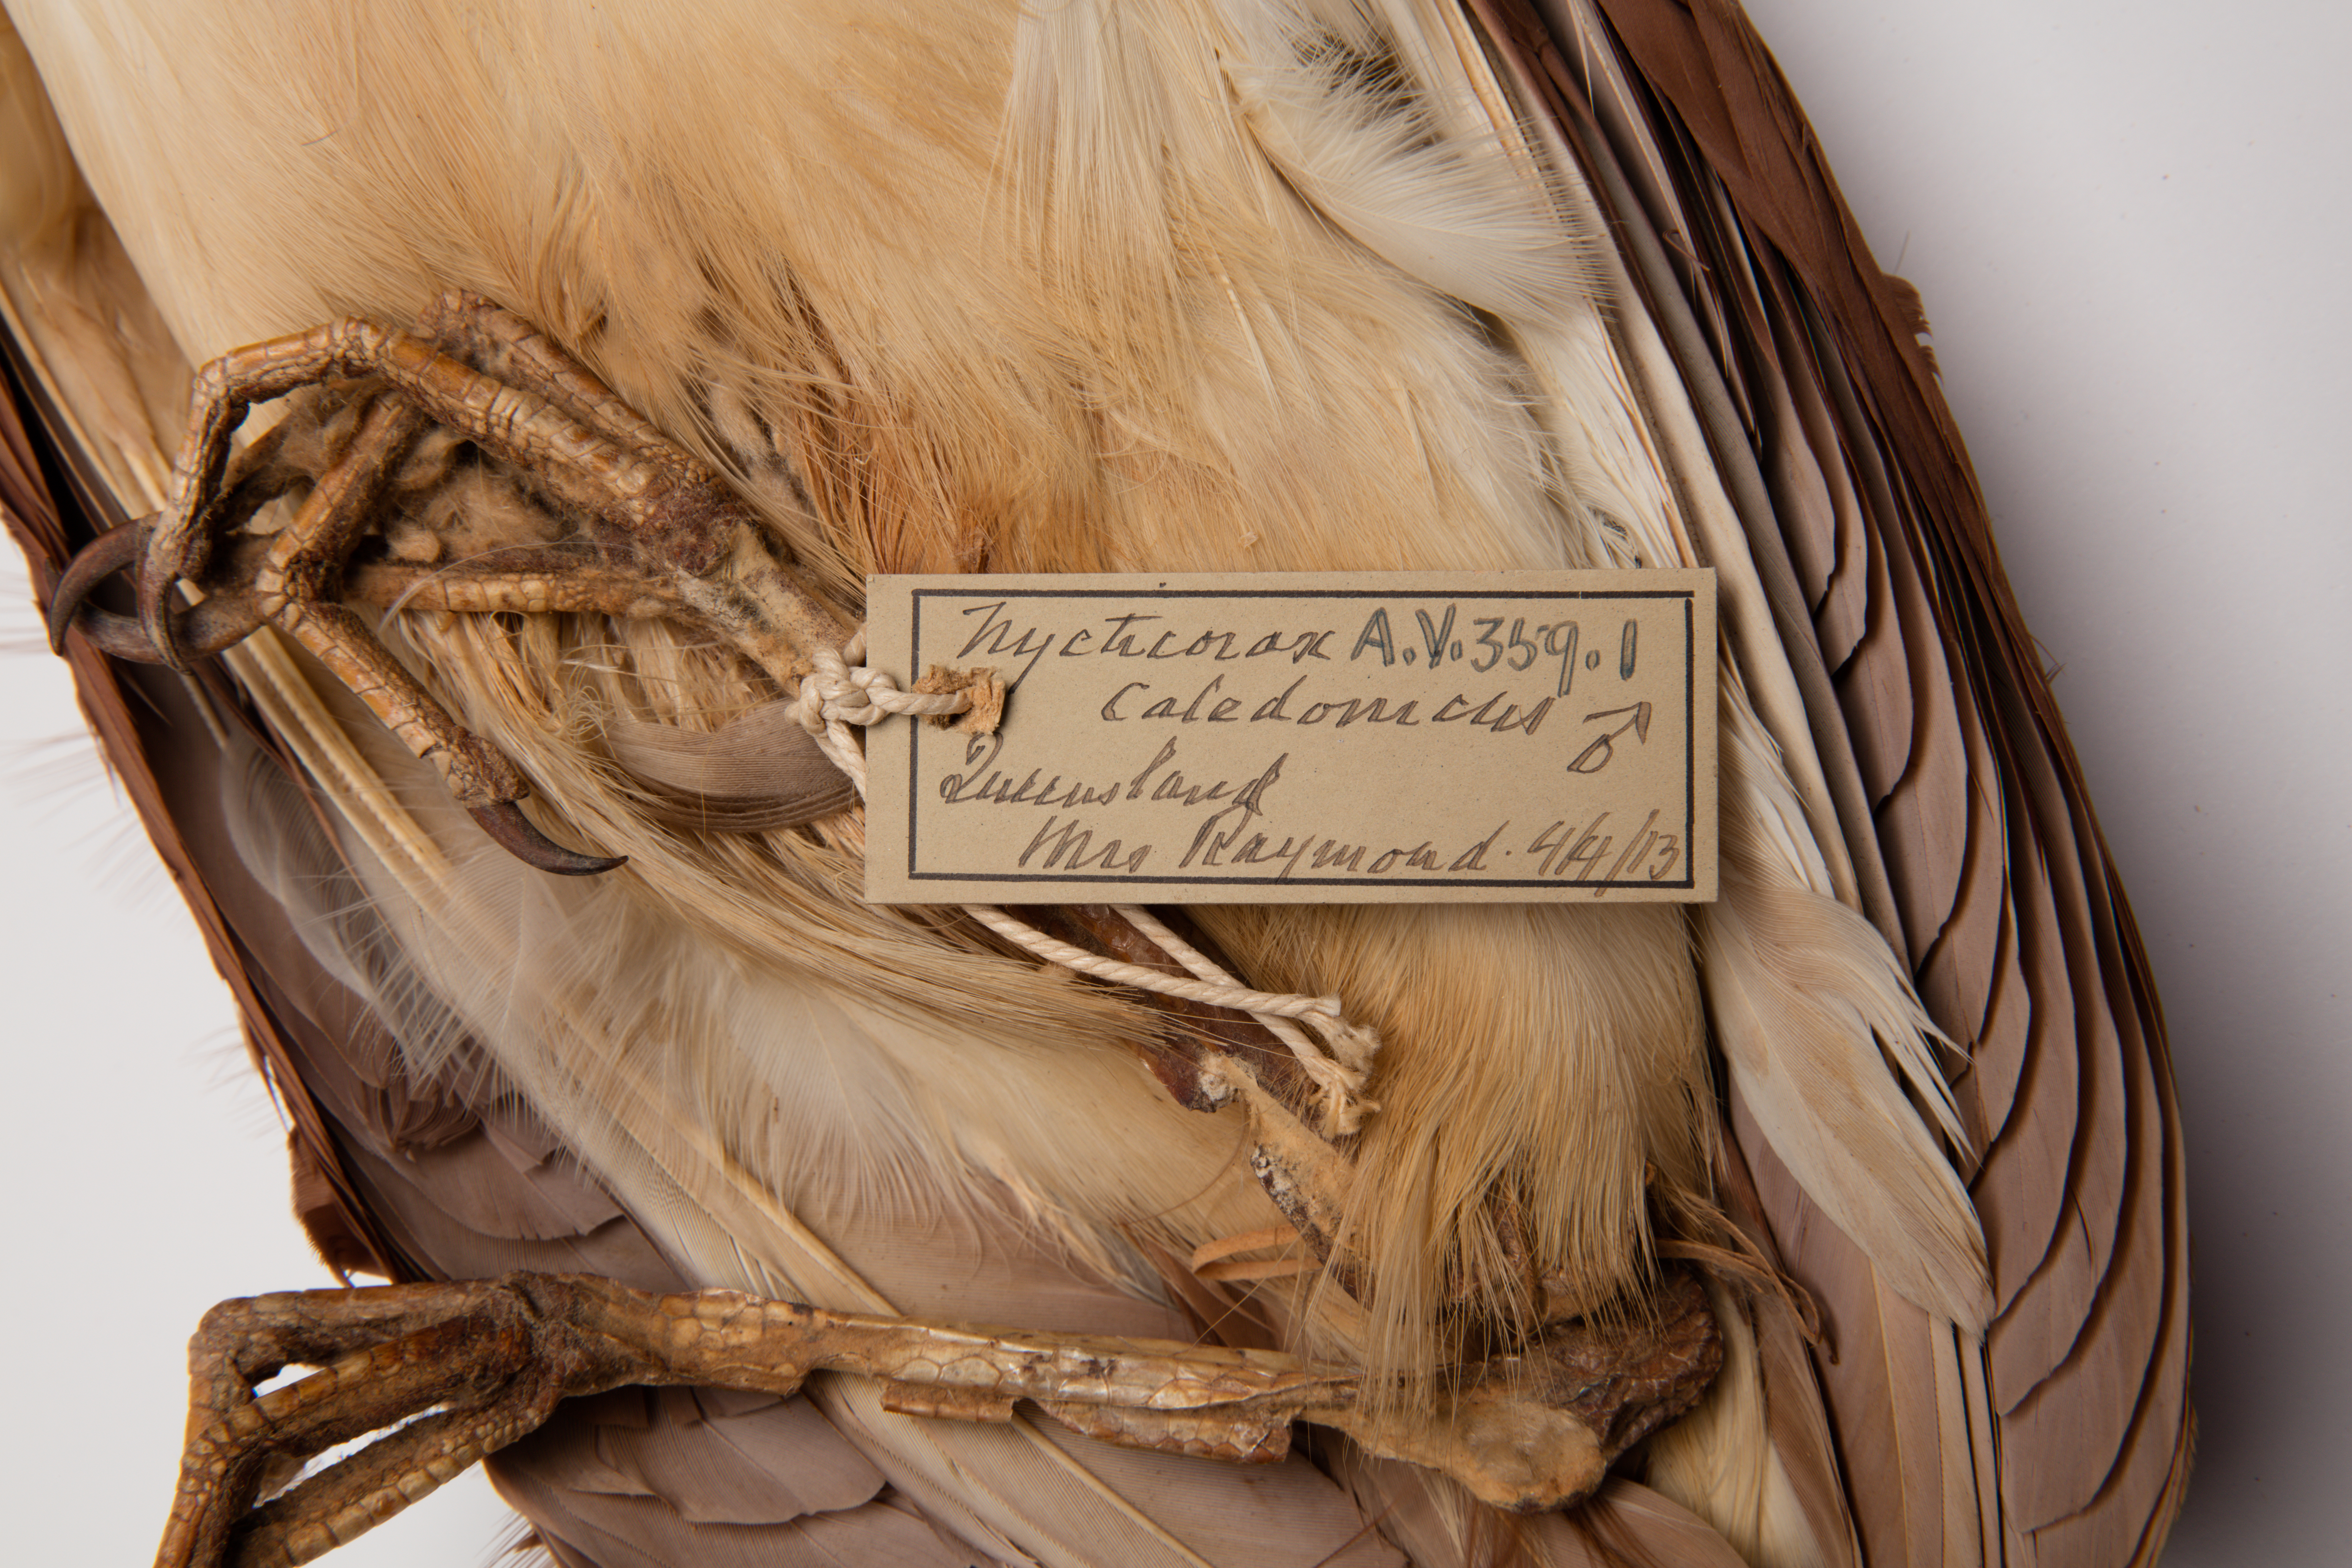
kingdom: Animalia
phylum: Chordata
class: Aves
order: Pelecaniformes
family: Ardeidae
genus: Nycticorax
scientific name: Nycticorax caledonicus
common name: Rufous night-heron
